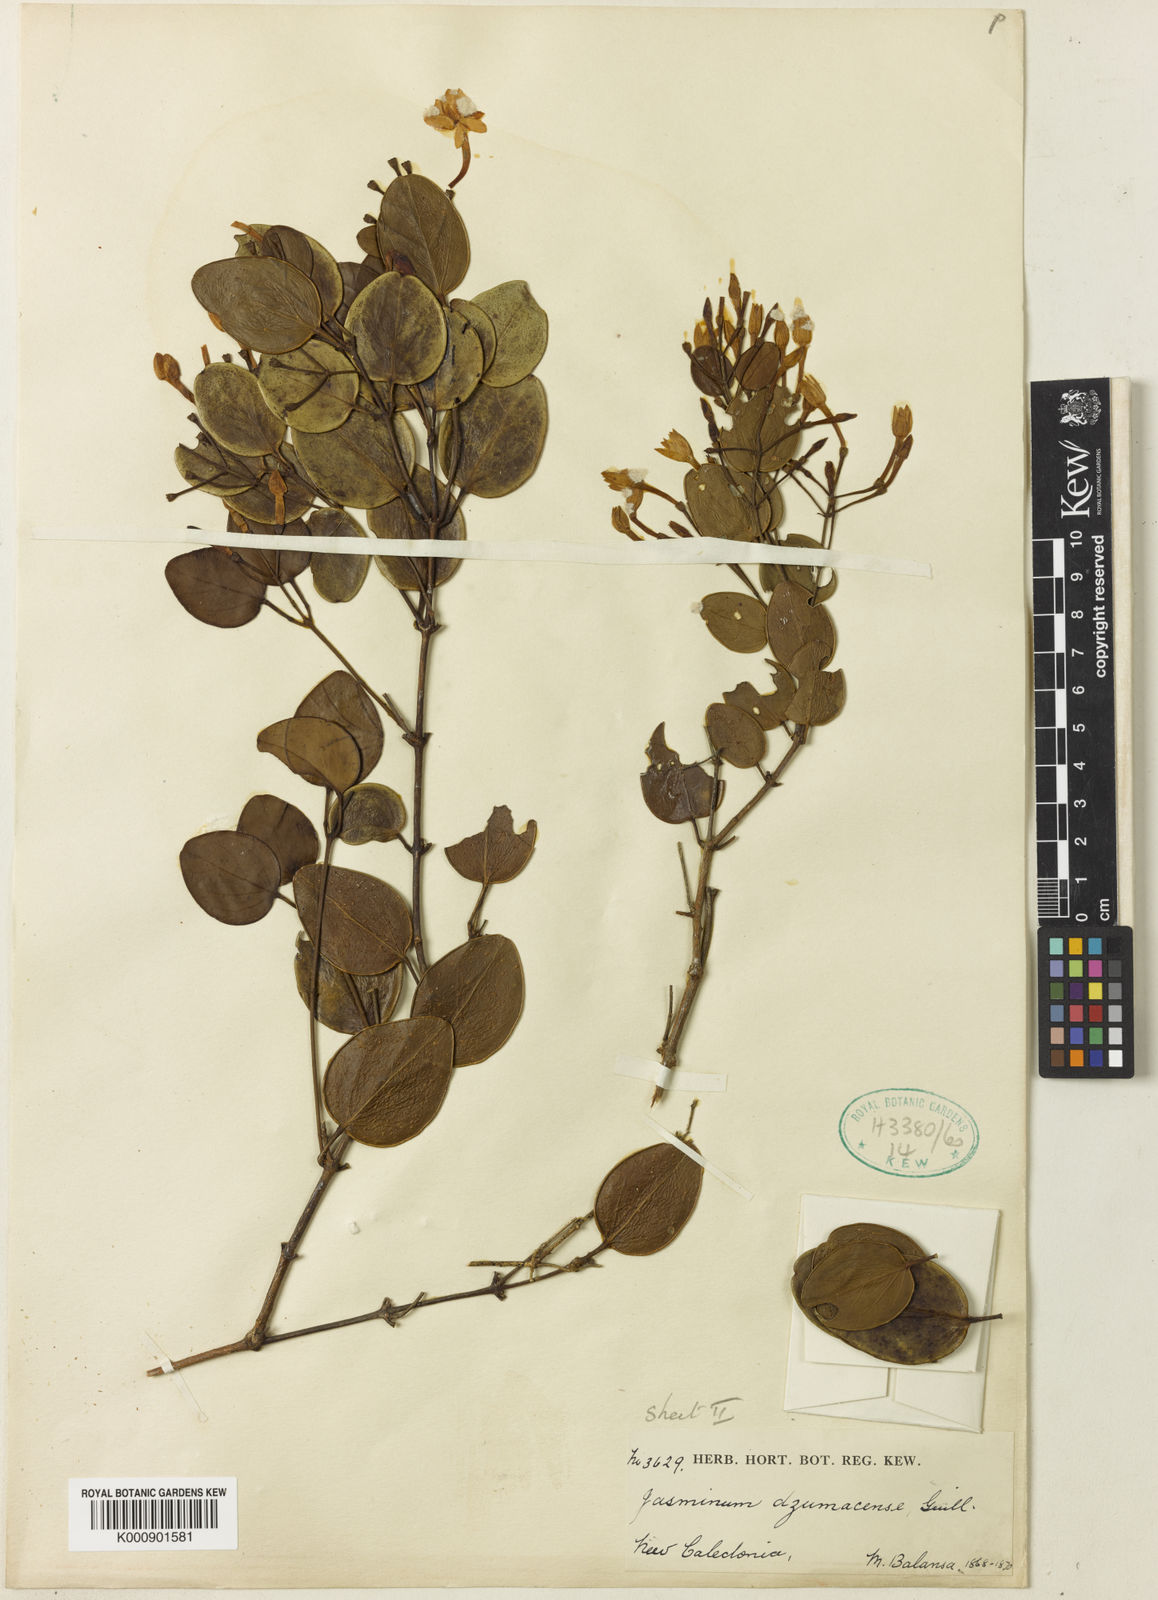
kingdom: Plantae
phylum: Tracheophyta
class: Magnoliopsida
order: Lamiales
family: Oleaceae
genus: Jasminum
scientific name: Jasminum artense
